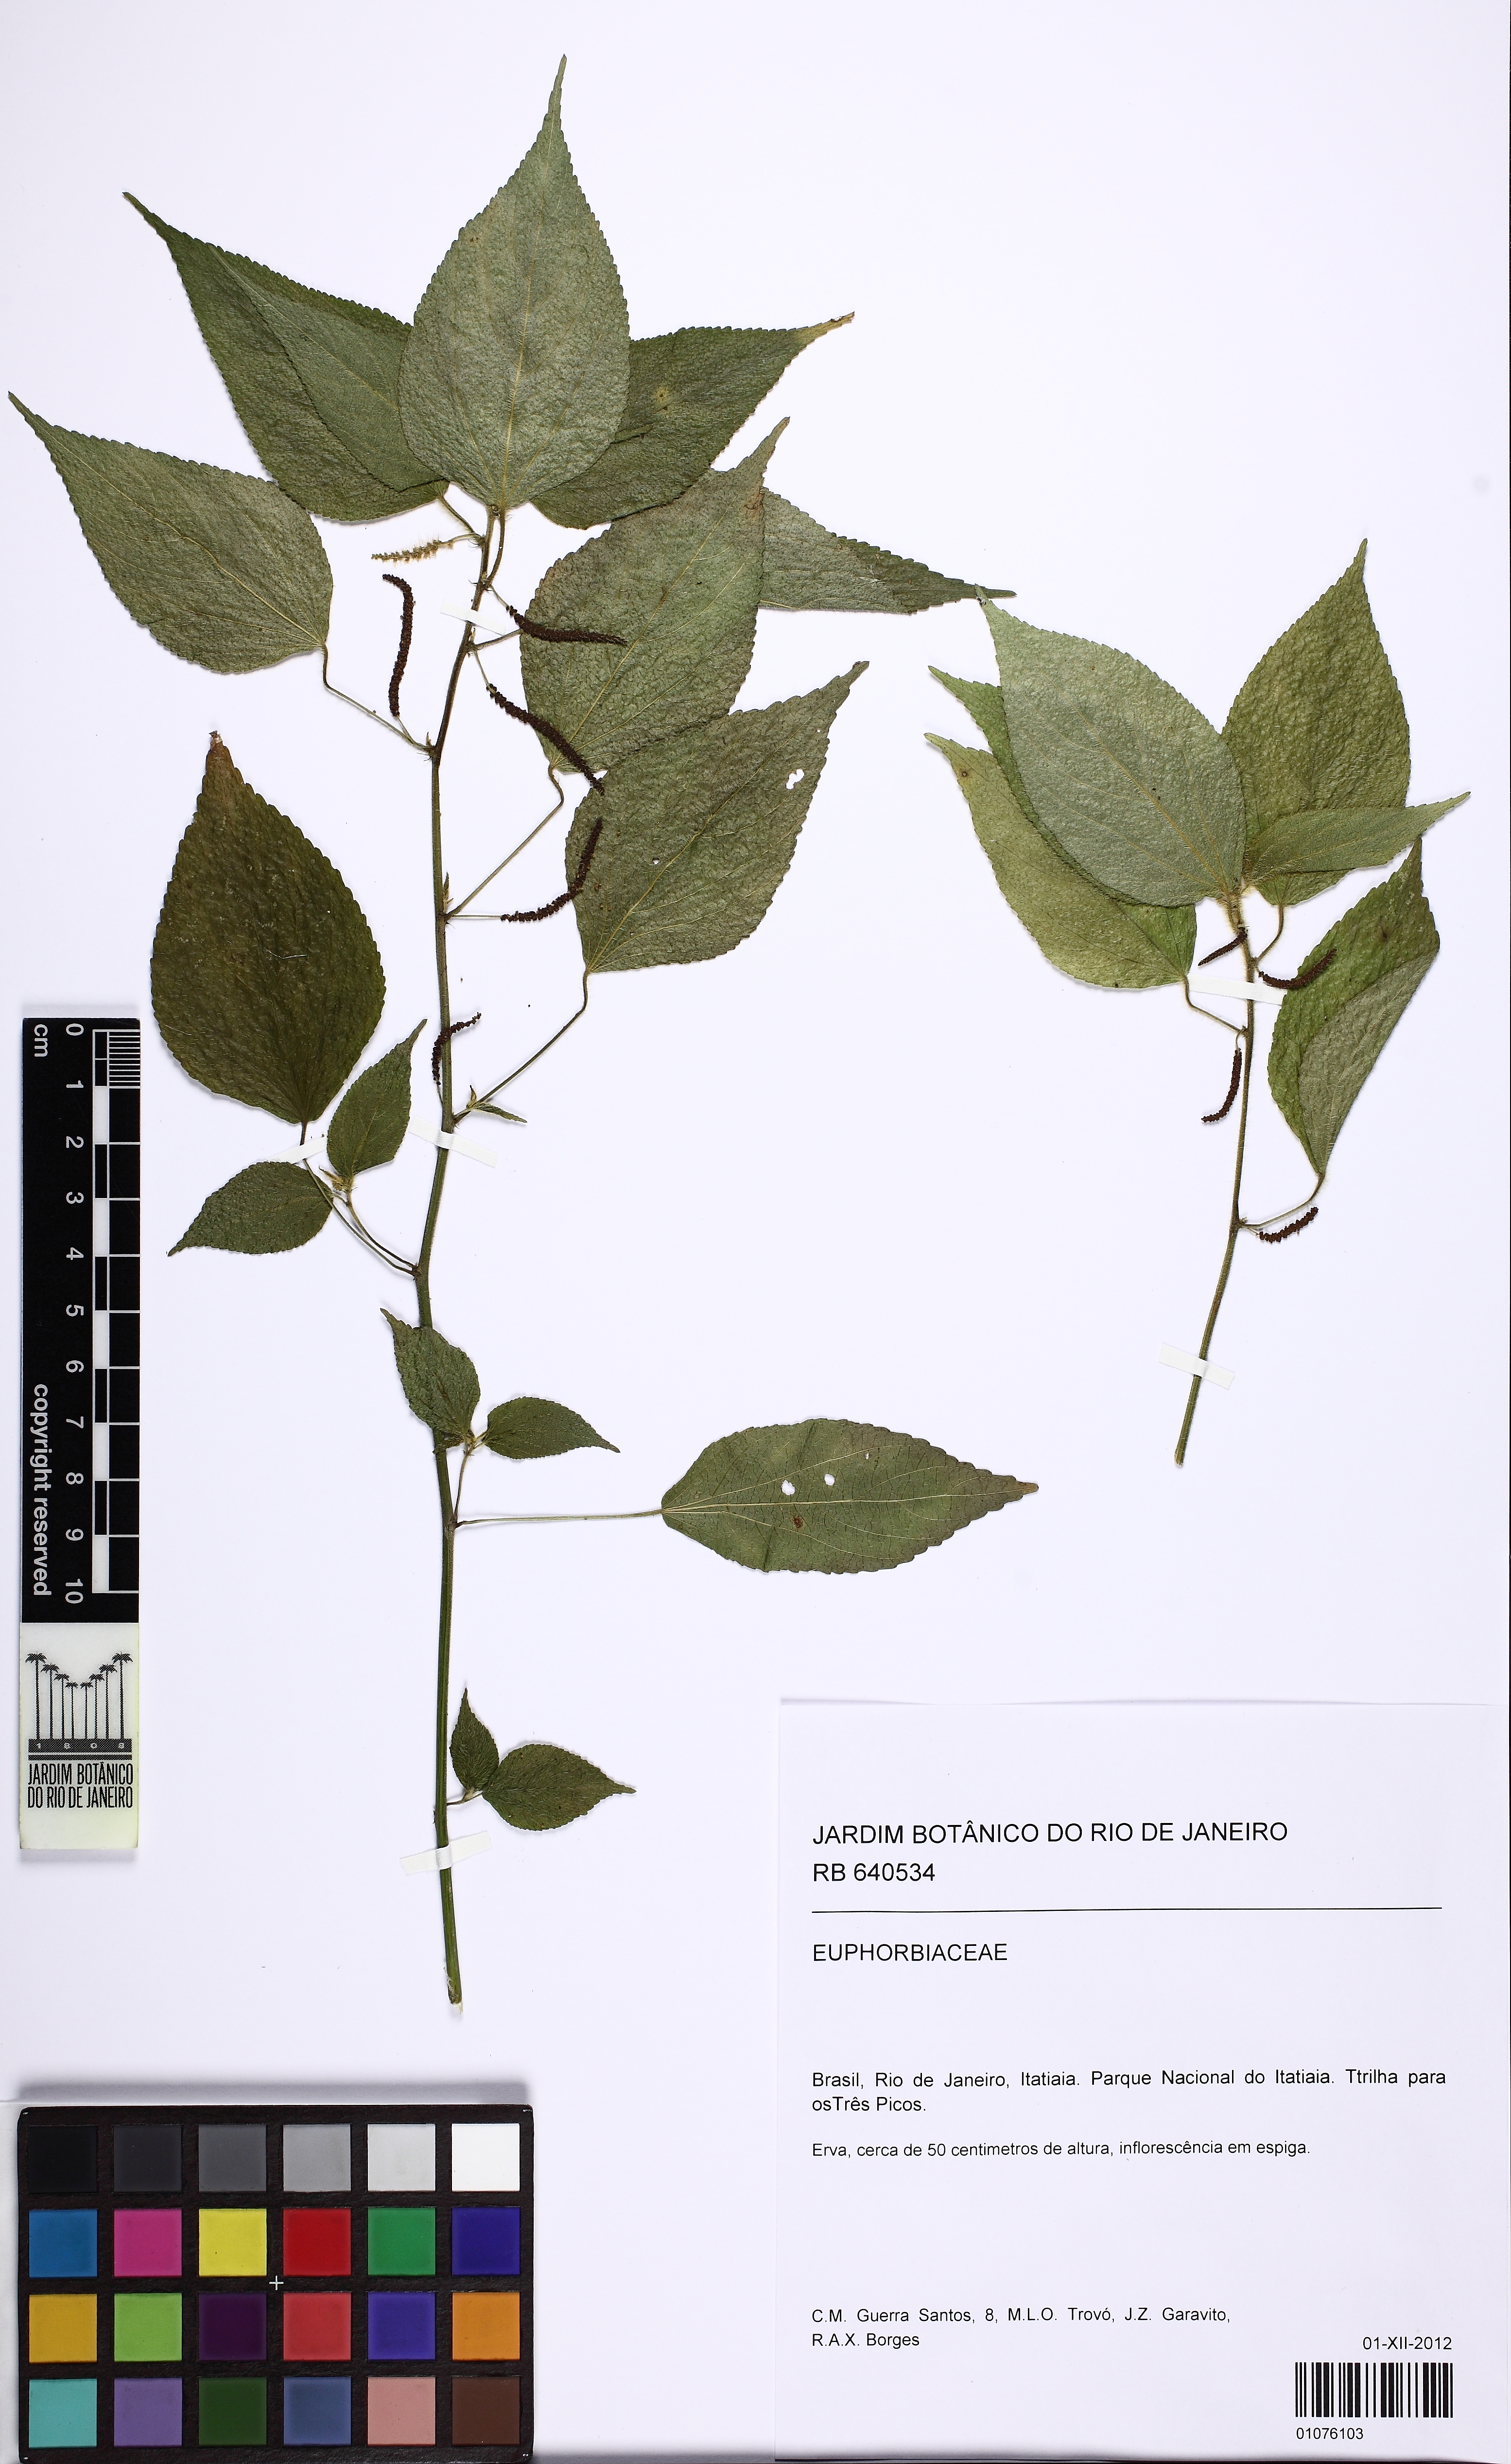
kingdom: Plantae
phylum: Tracheophyta
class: Magnoliopsida
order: Malpighiales
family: Euphorbiaceae
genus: Acalypha
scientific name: Acalypha brasiliensis
